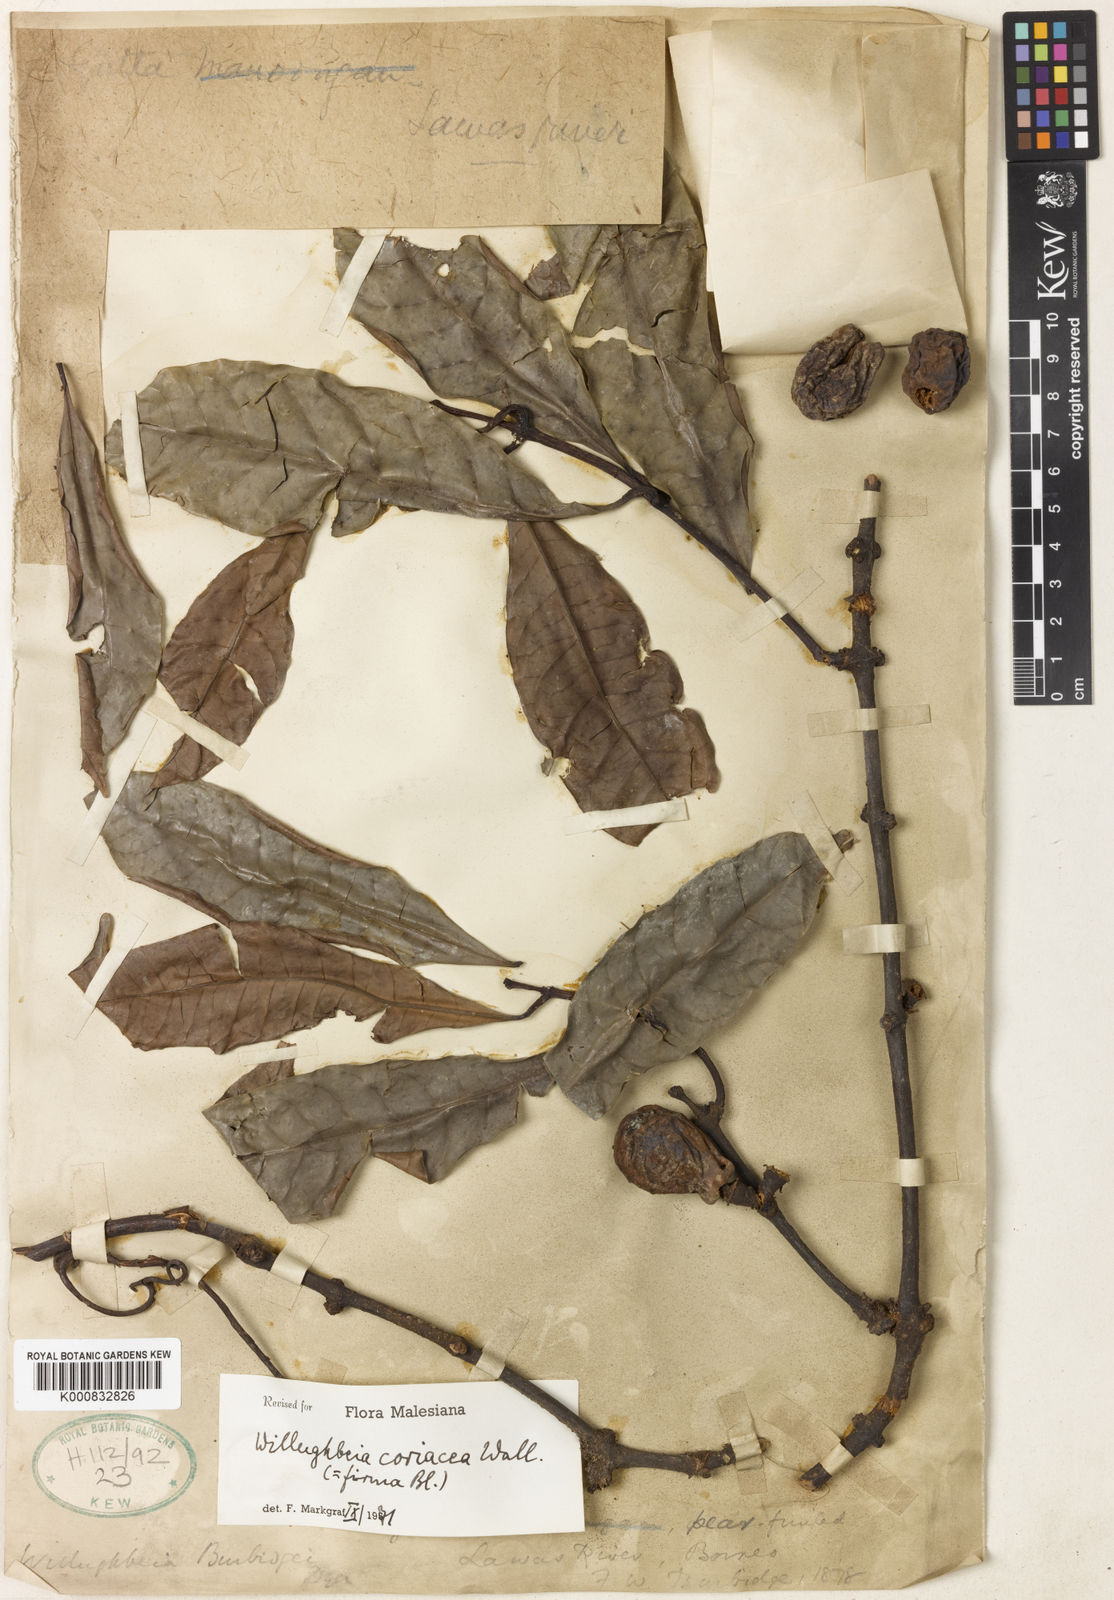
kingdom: Plantae
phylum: Tracheophyta
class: Magnoliopsida
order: Gentianales
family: Apocynaceae
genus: Willughbeia
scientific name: Willughbeia coriacea
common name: Borneo-rubber
